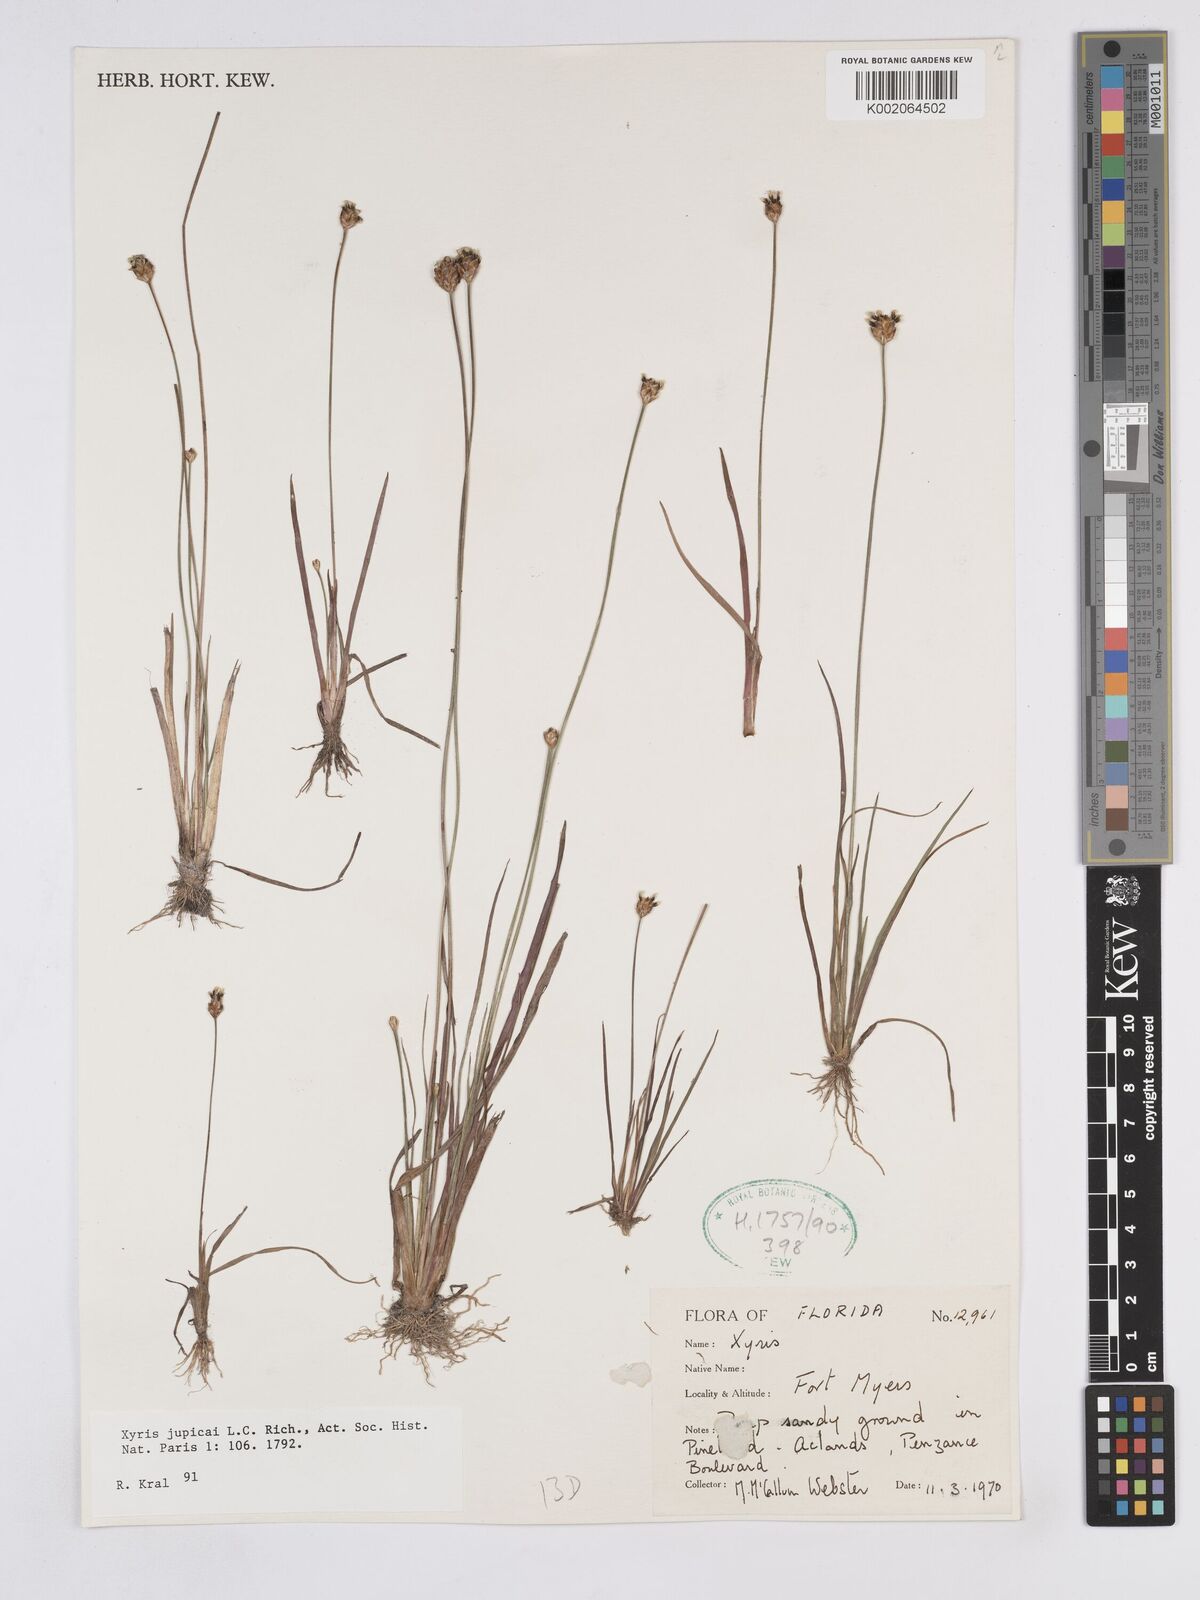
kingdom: Plantae
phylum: Tracheophyta
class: Liliopsida
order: Poales
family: Xyridaceae
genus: Xyris
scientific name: Xyris jupicai
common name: Richard's yelloweyed grass
